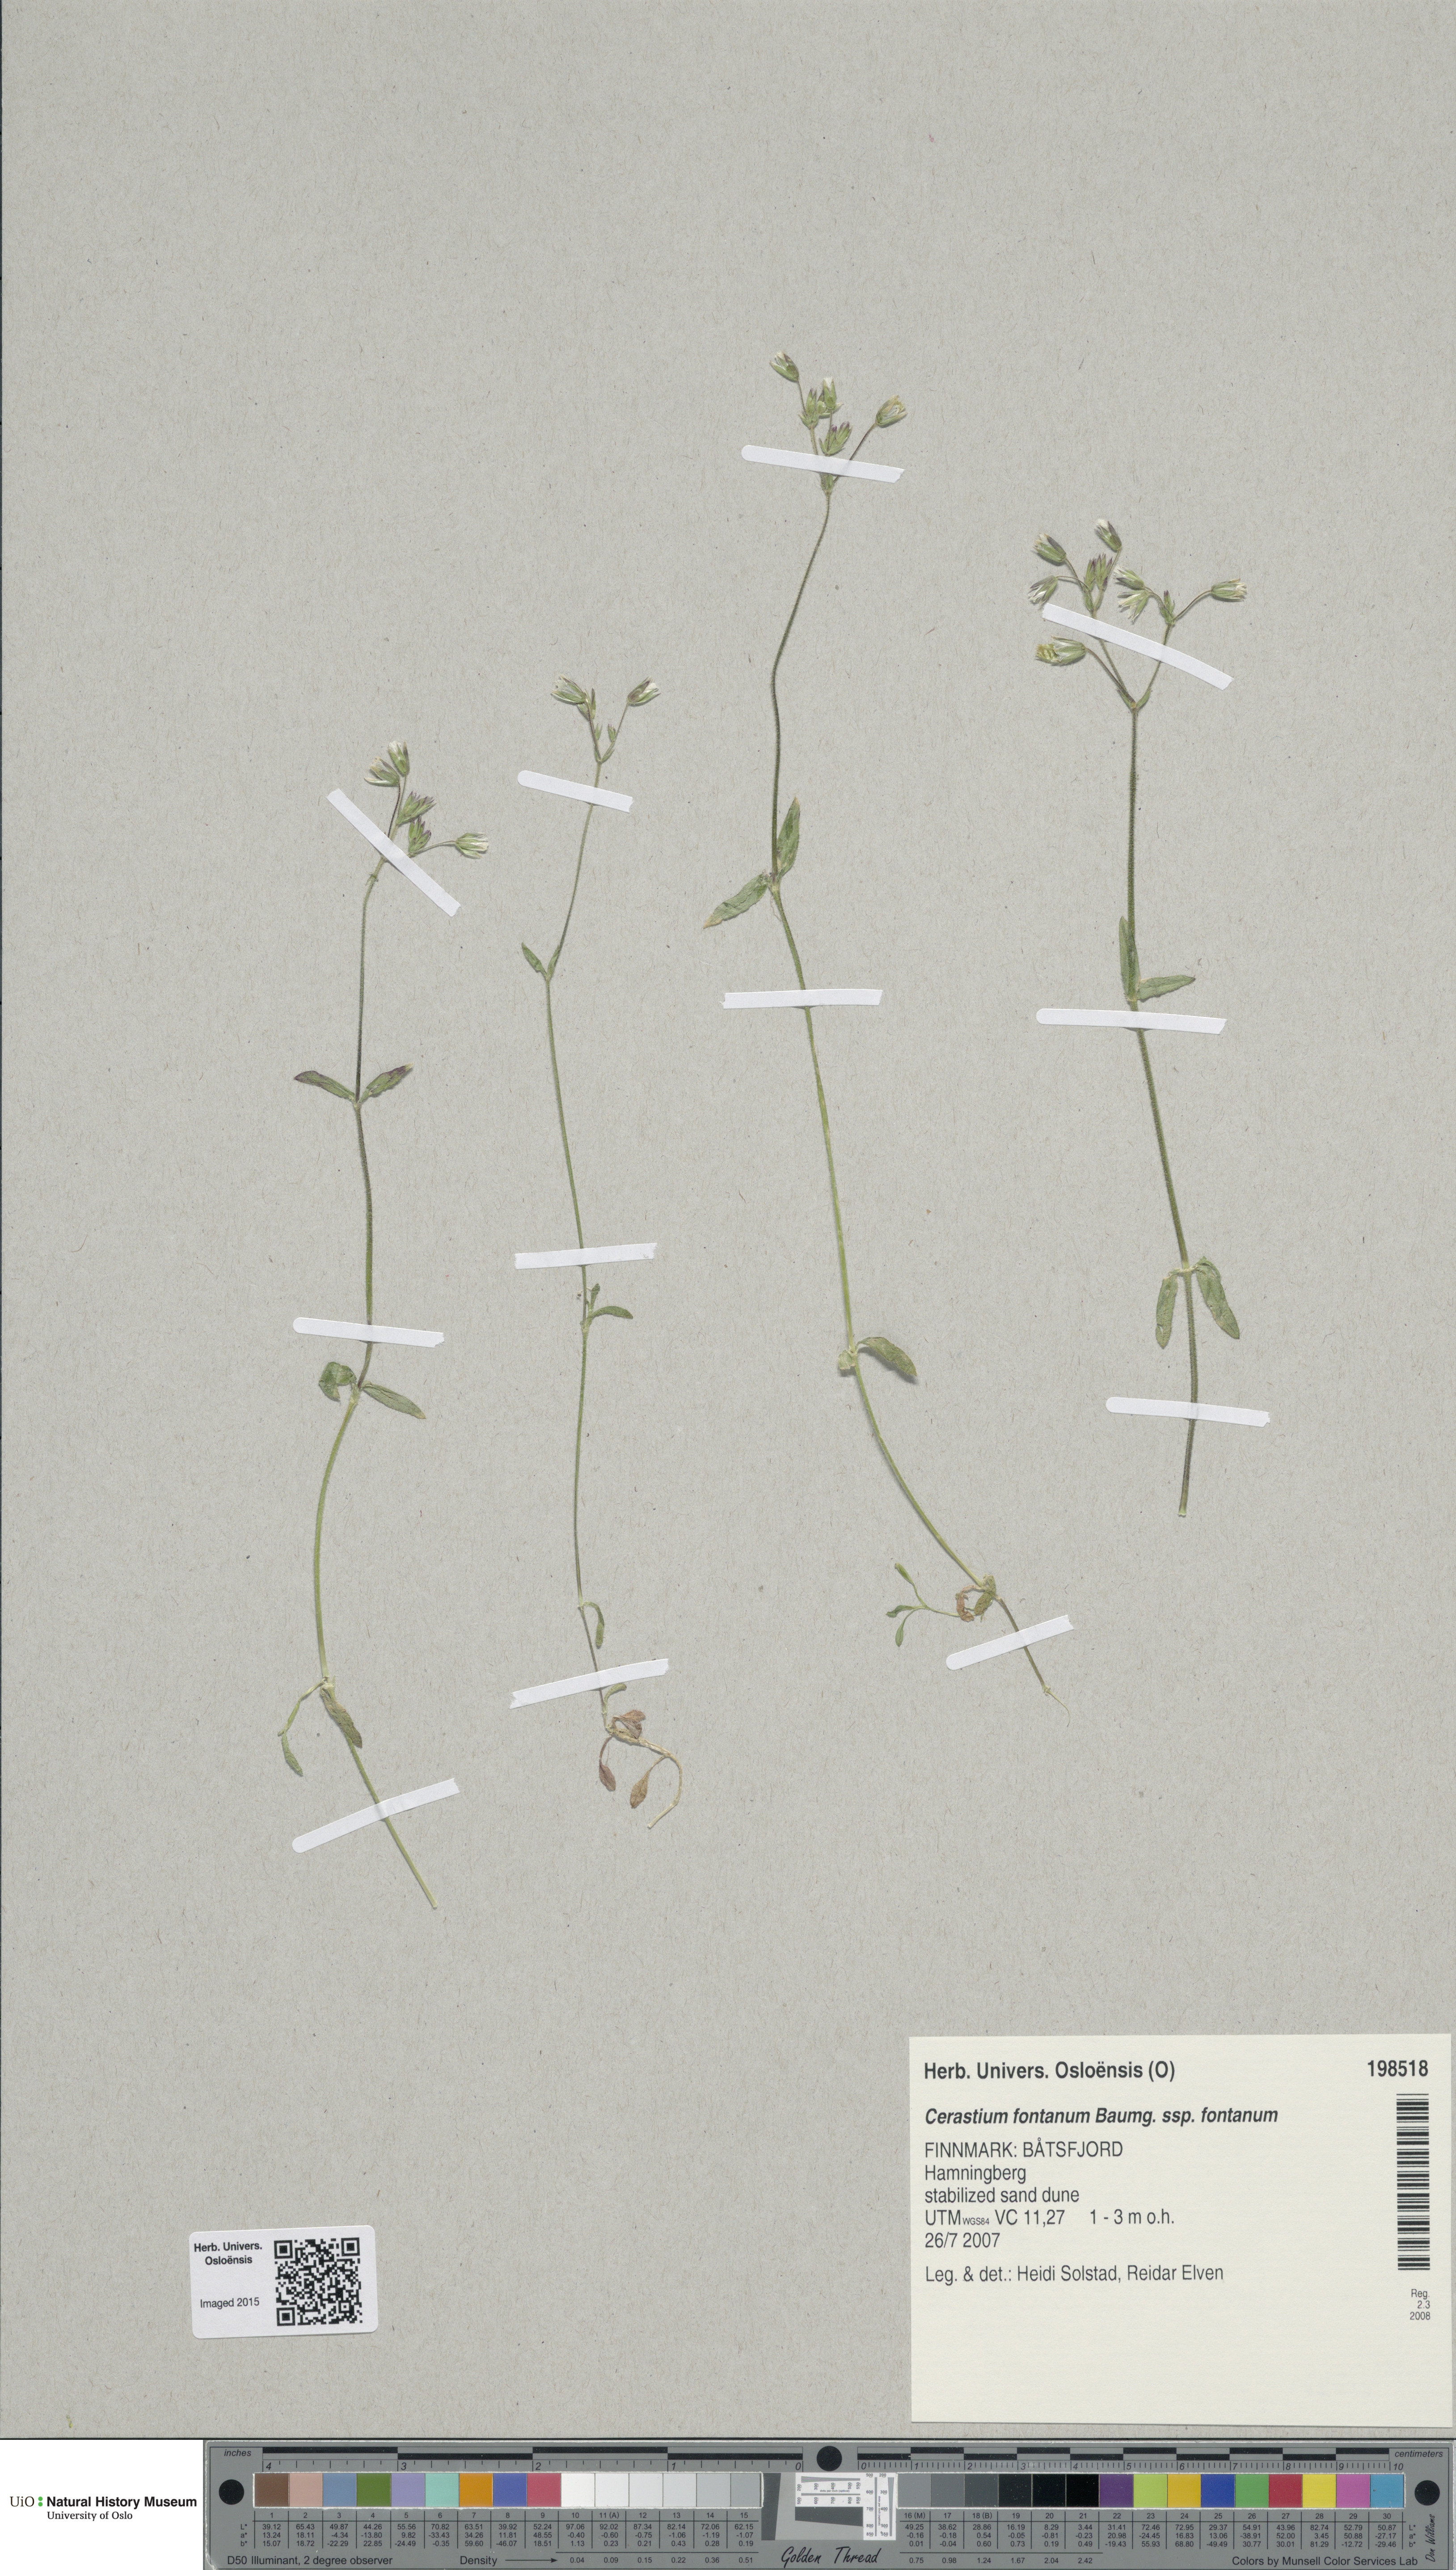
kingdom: Plantae
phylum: Tracheophyta
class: Magnoliopsida
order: Caryophyllales
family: Caryophyllaceae
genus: Cerastium
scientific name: Cerastium fontanum
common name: Common mouse-ear
